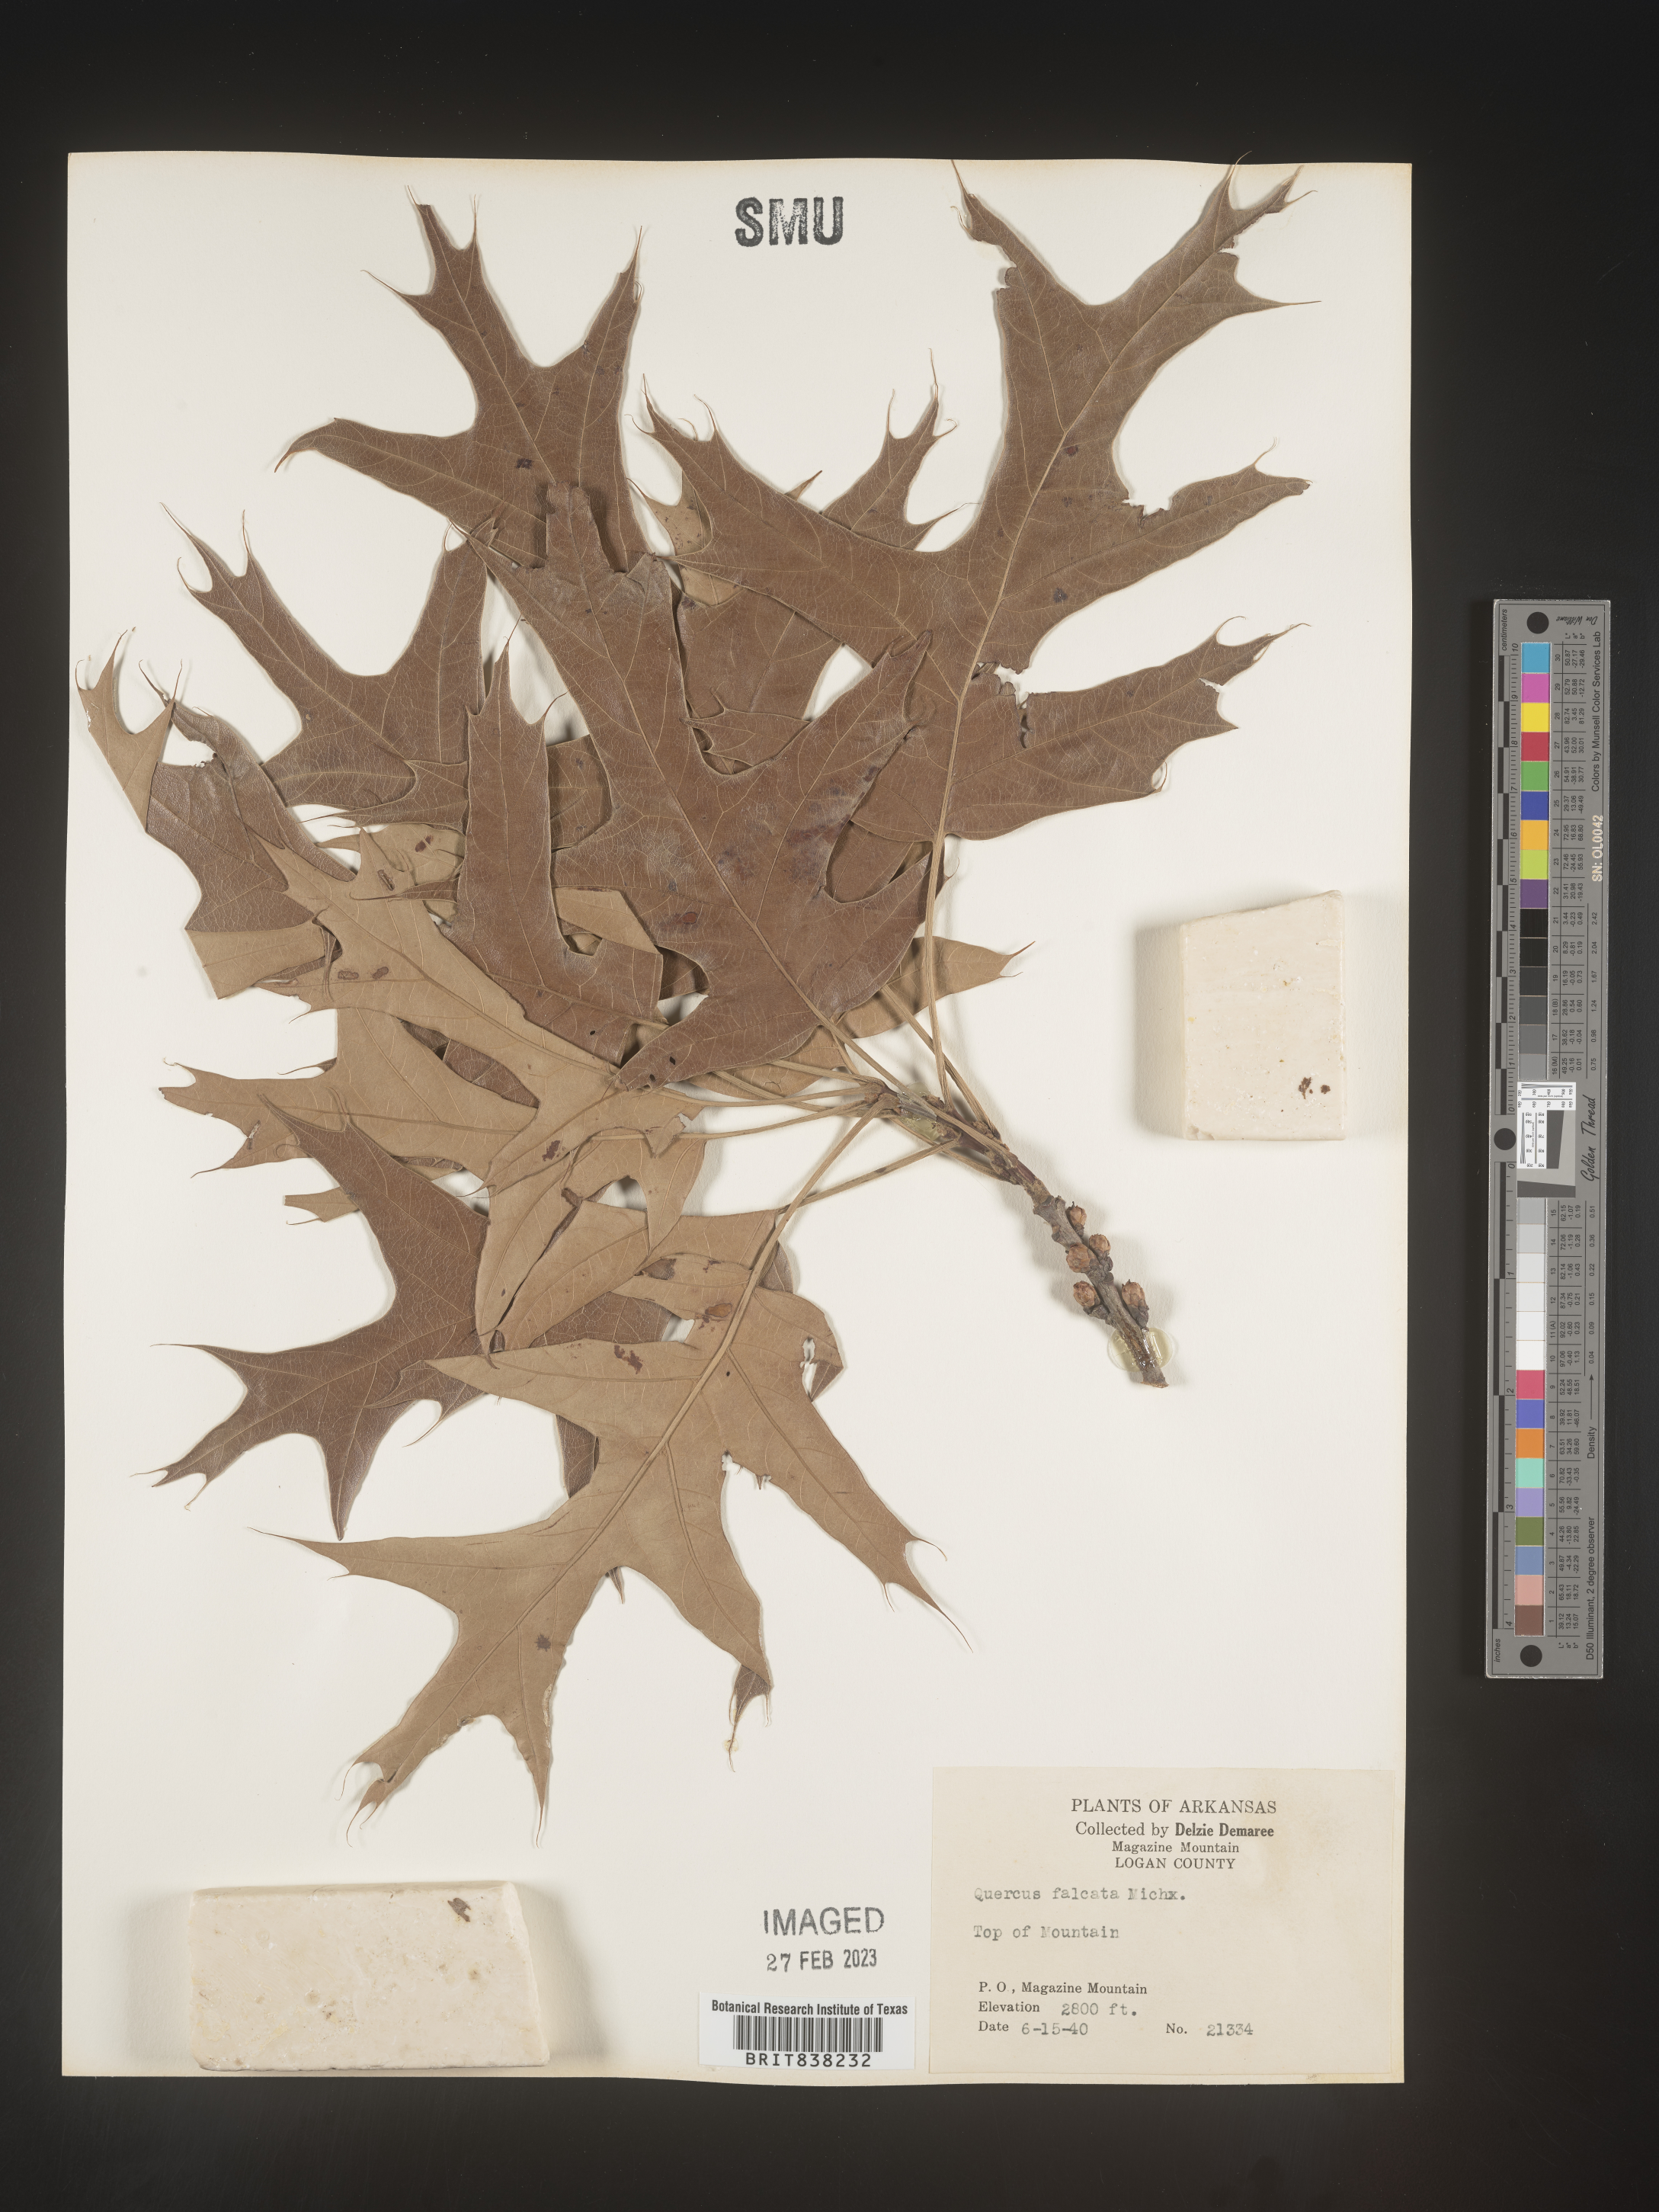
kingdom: Plantae
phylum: Tracheophyta
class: Magnoliopsida
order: Fagales
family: Fagaceae
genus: Quercus
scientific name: Quercus falcata
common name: Southern red oak
